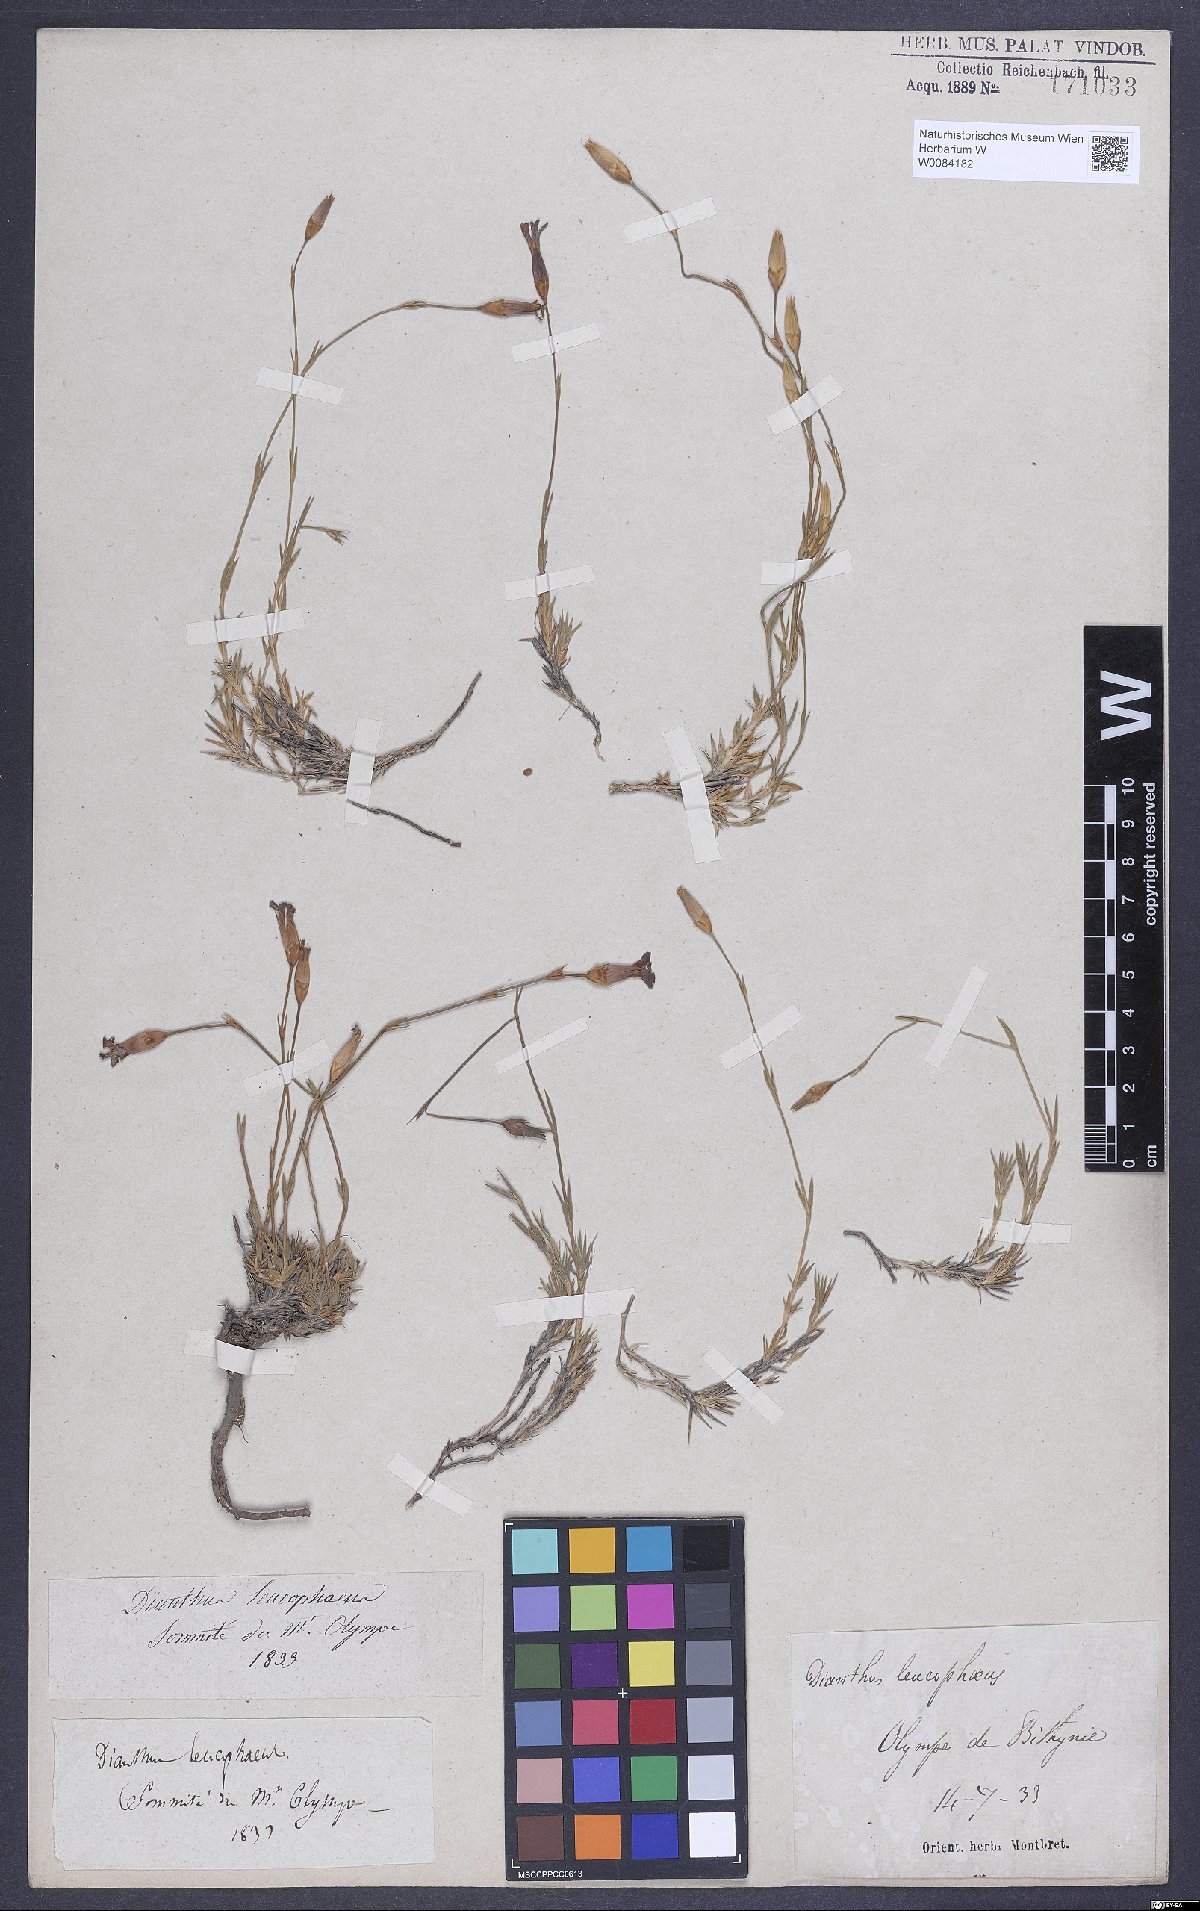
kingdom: Plantae
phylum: Tracheophyta
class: Magnoliopsida
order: Caryophyllales
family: Caryophyllaceae
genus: Dianthus
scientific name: Dianthus leucophaeus
